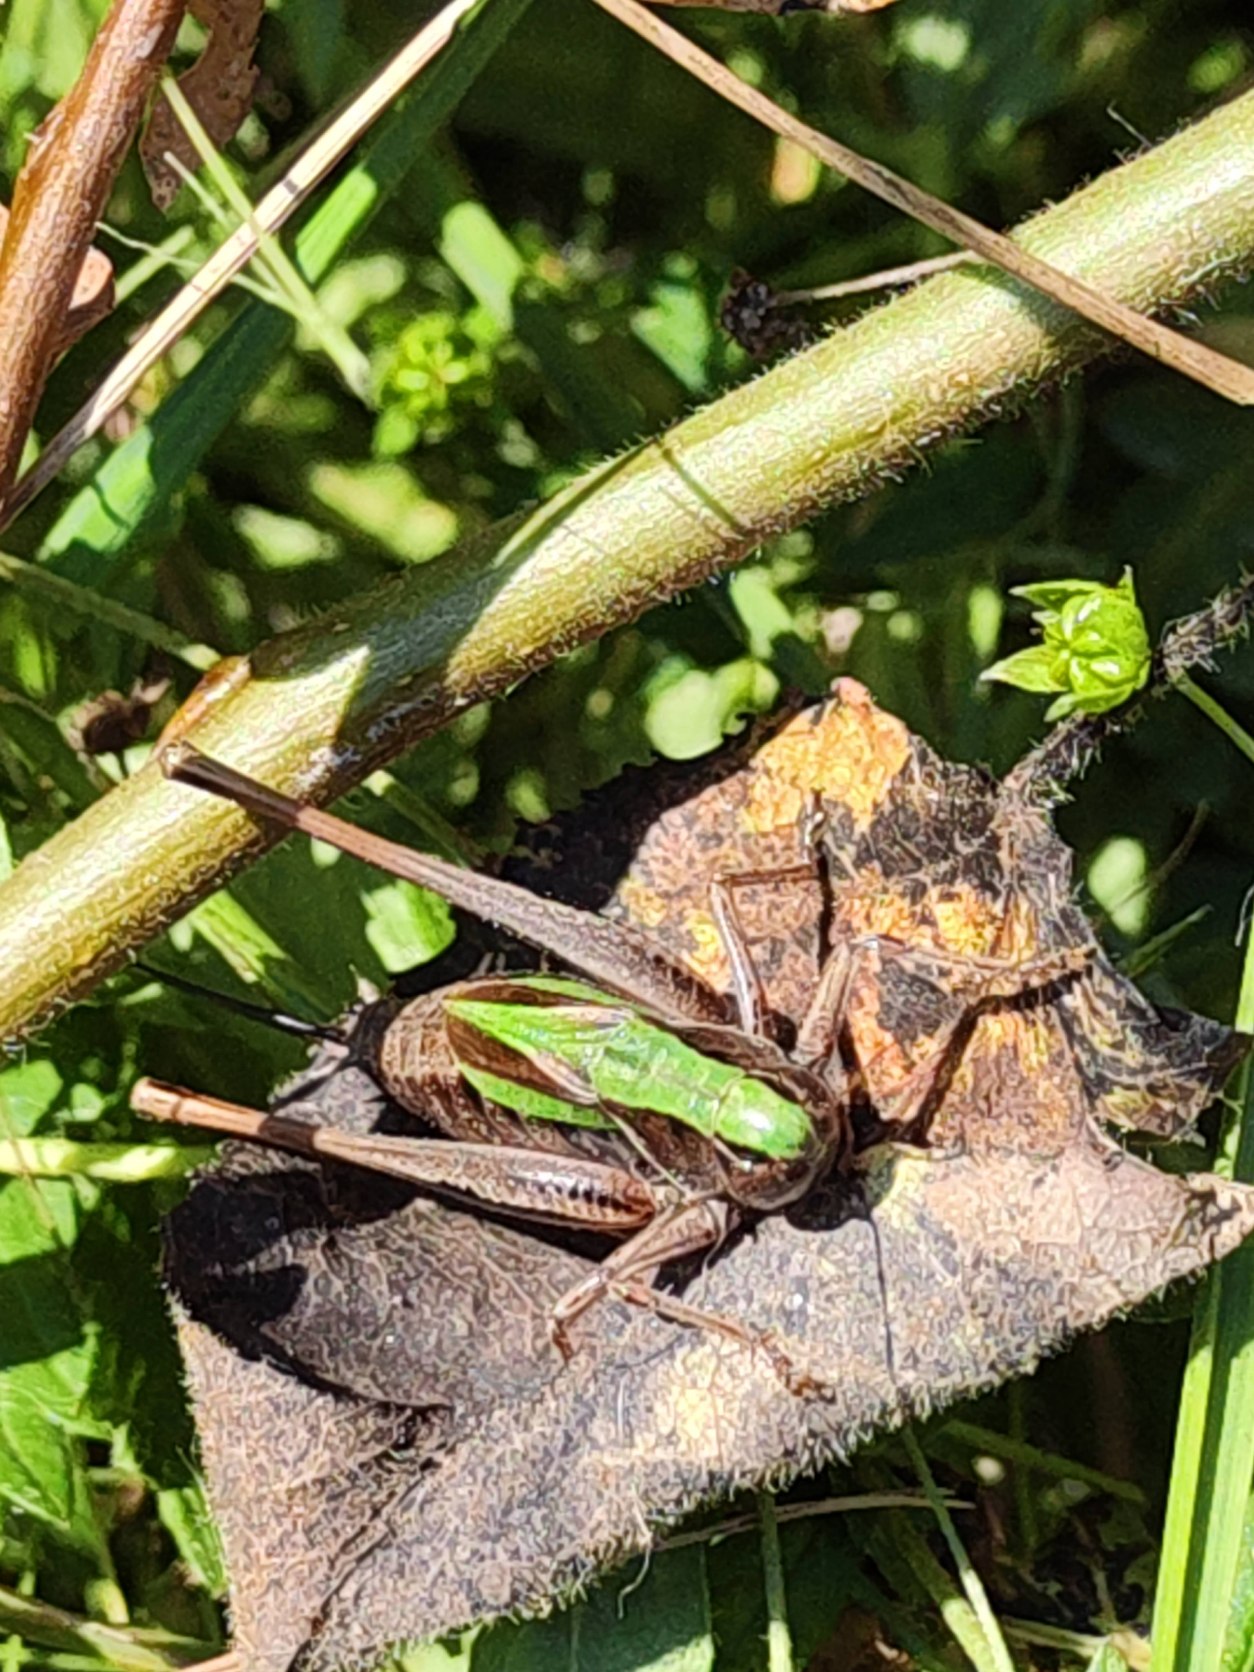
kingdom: Animalia
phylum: Arthropoda
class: Insecta
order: Orthoptera
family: Tettigoniidae
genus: Metrioptera
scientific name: Metrioptera brachyptera
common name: Hedegræshoppe
